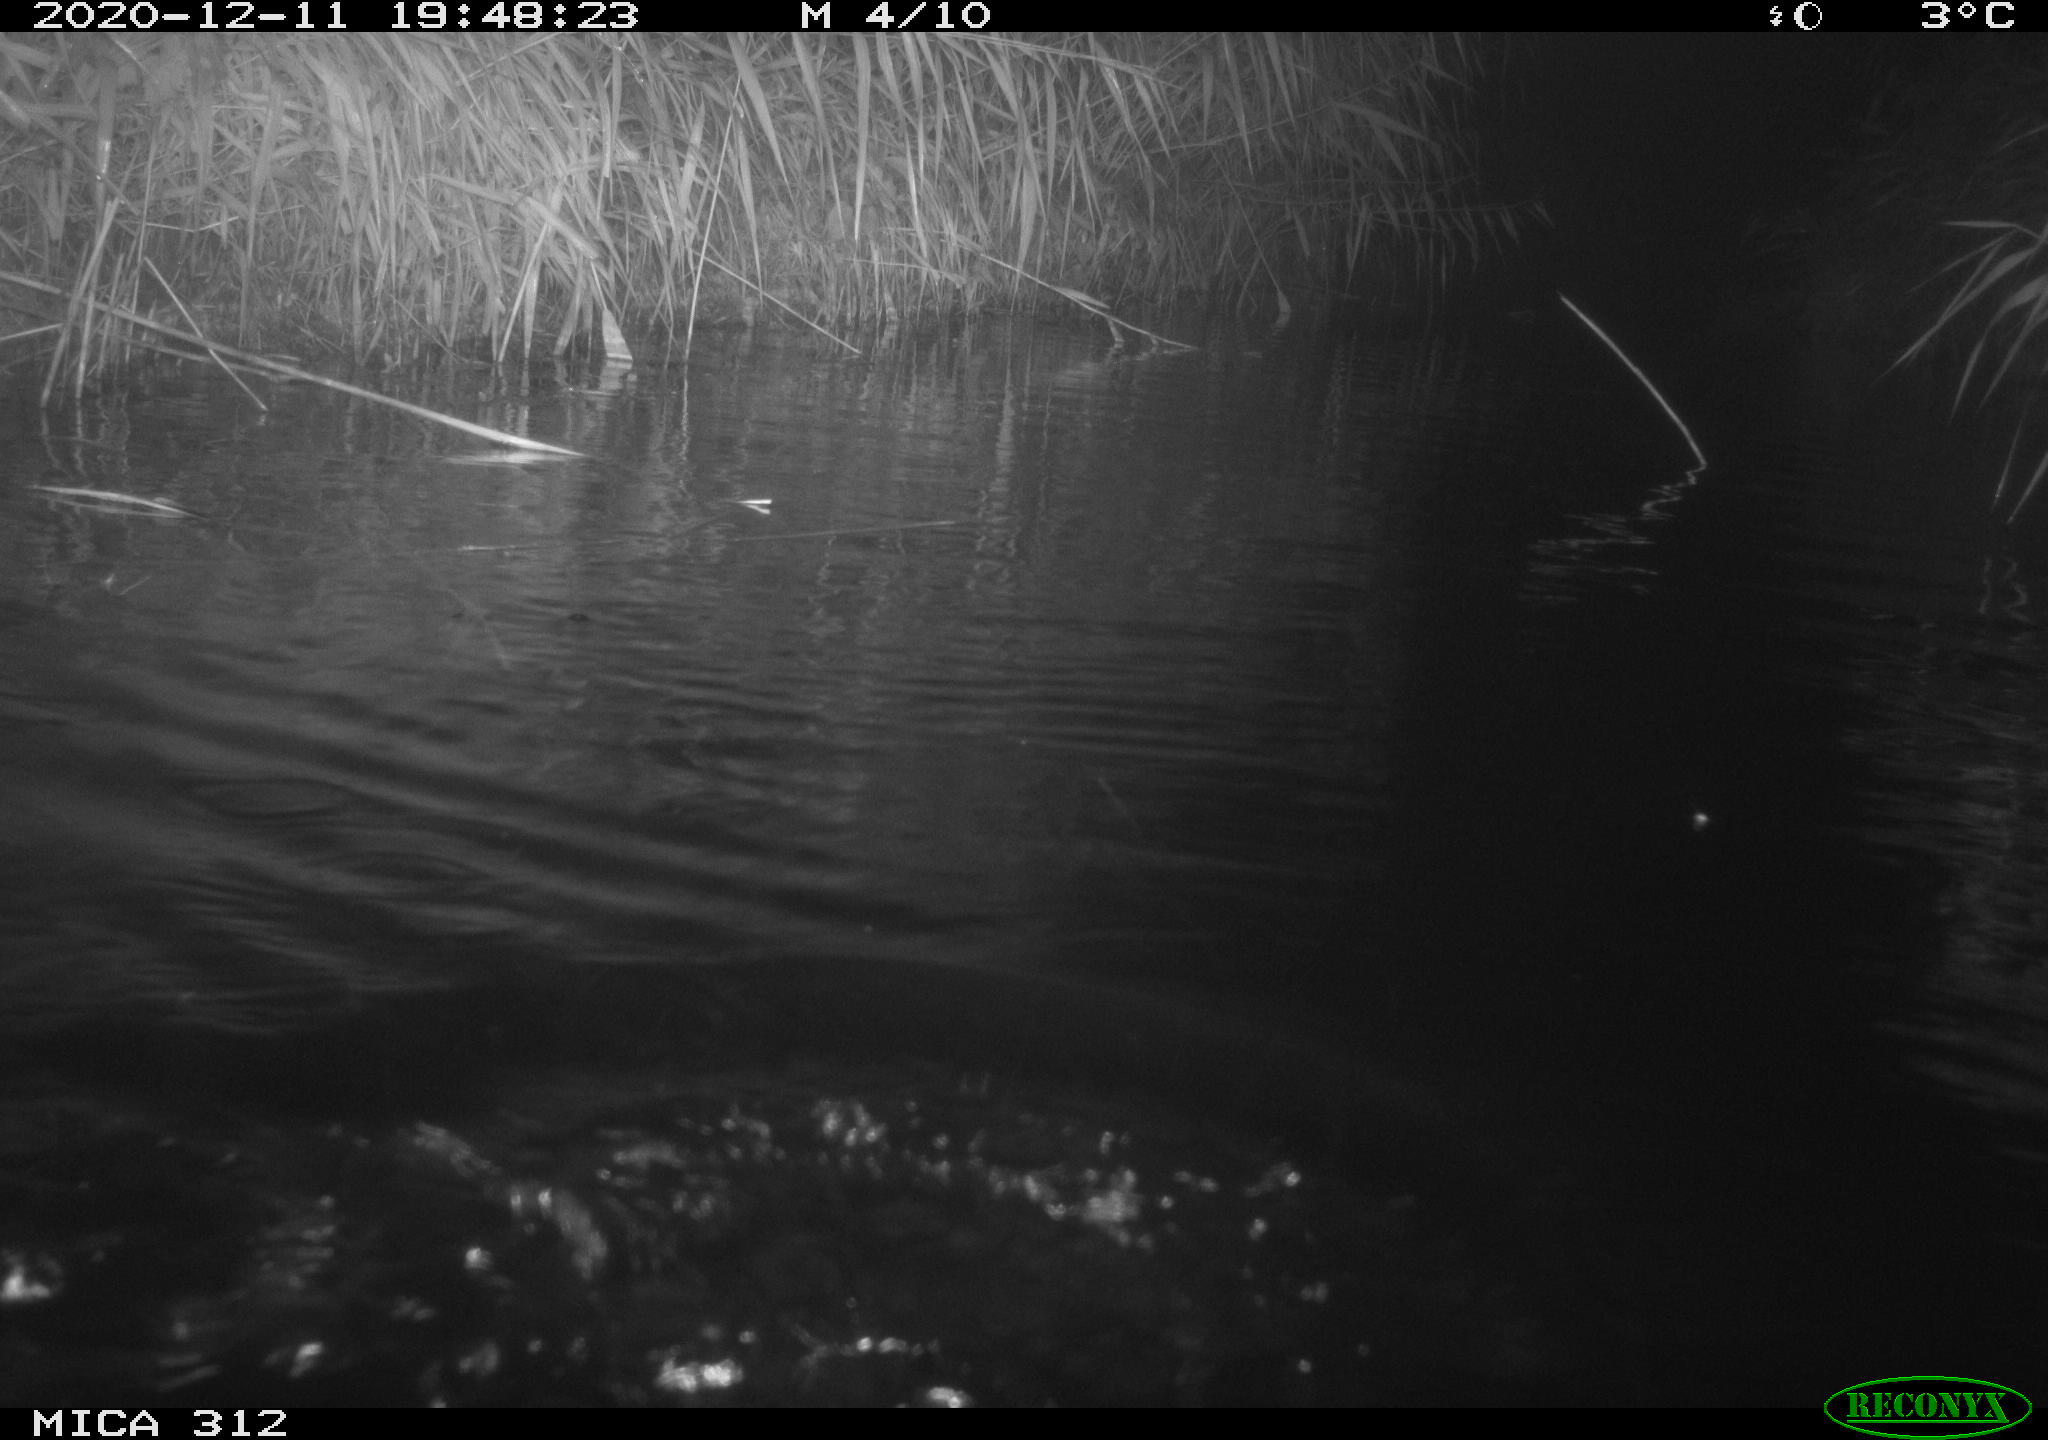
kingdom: Animalia
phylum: Chordata
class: Mammalia
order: Rodentia
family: Cricetidae
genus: Ondatra
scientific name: Ondatra zibethicus
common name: Muskrat
